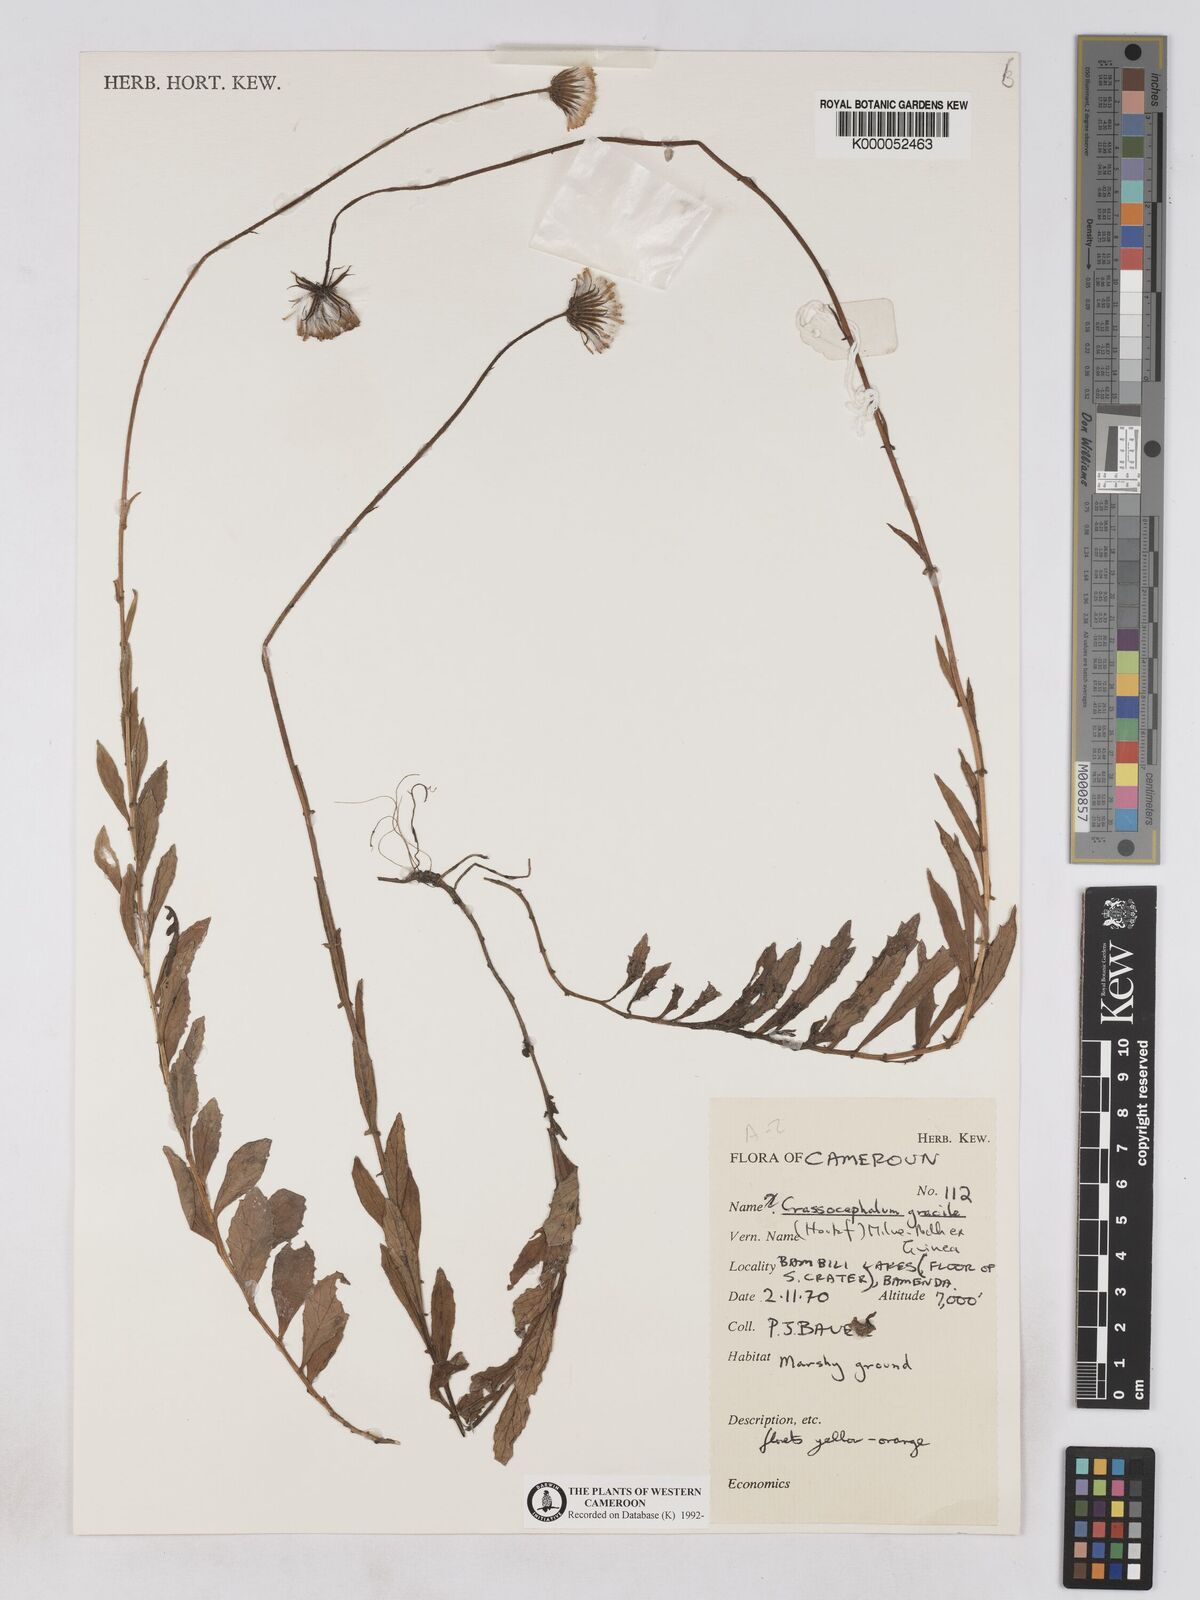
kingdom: Plantae
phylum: Tracheophyta
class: Magnoliopsida
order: Asterales
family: Asteraceae
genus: Crassocephalum
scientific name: Crassocephalum
